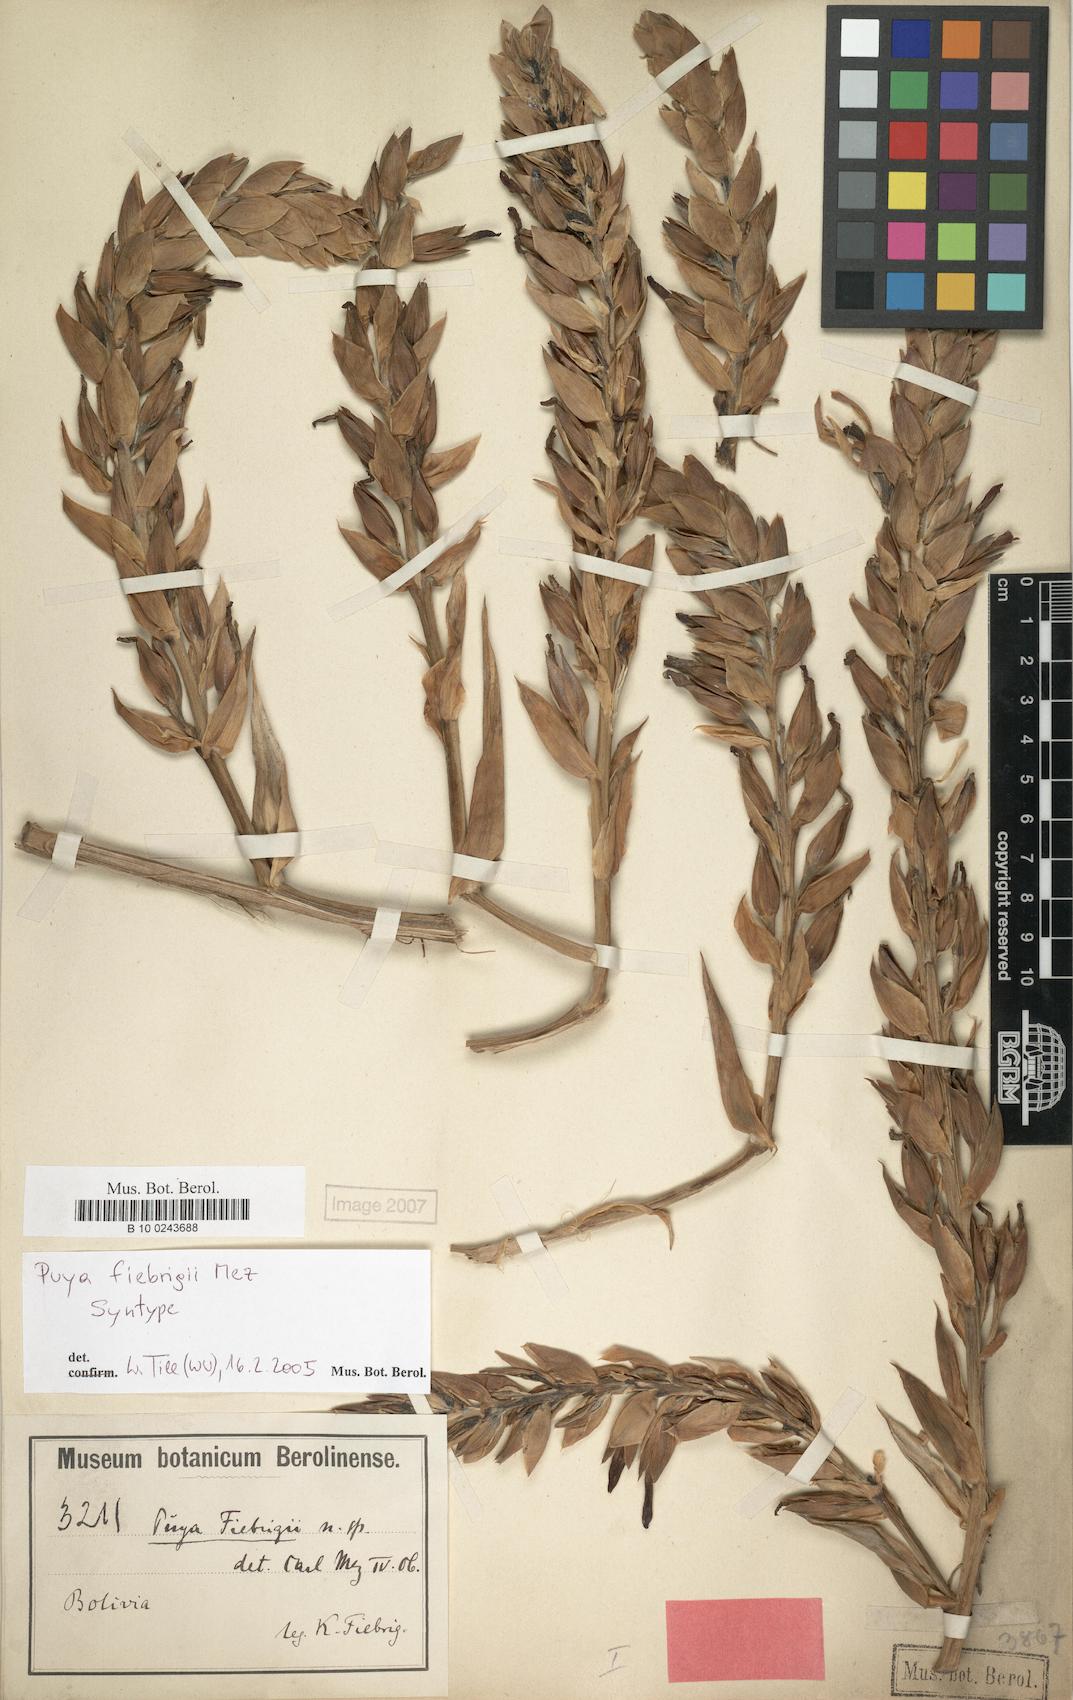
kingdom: Plantae
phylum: Tracheophyta
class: Liliopsida
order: Poales
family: Bromeliaceae
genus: Puya
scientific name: Puya fiebrigii
